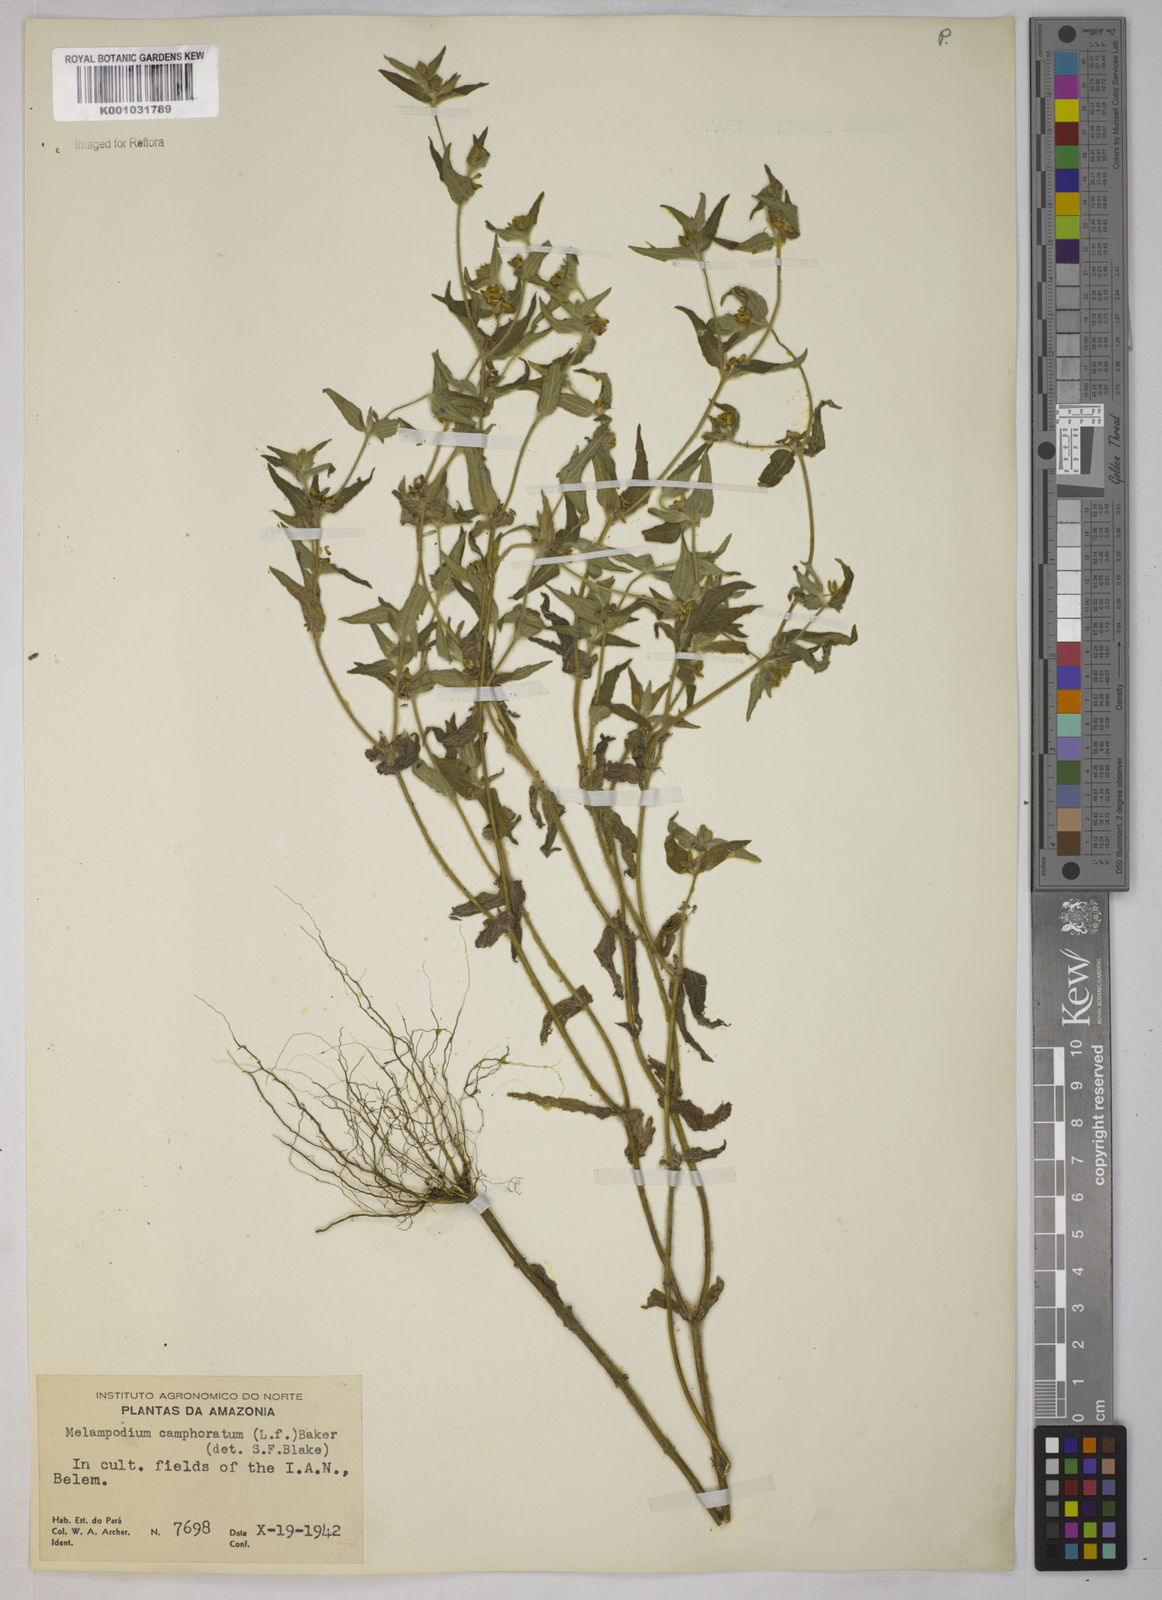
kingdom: Plantae
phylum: Tracheophyta
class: Magnoliopsida
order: Asterales
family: Asteraceae
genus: Unxia
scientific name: Unxia camphorata
